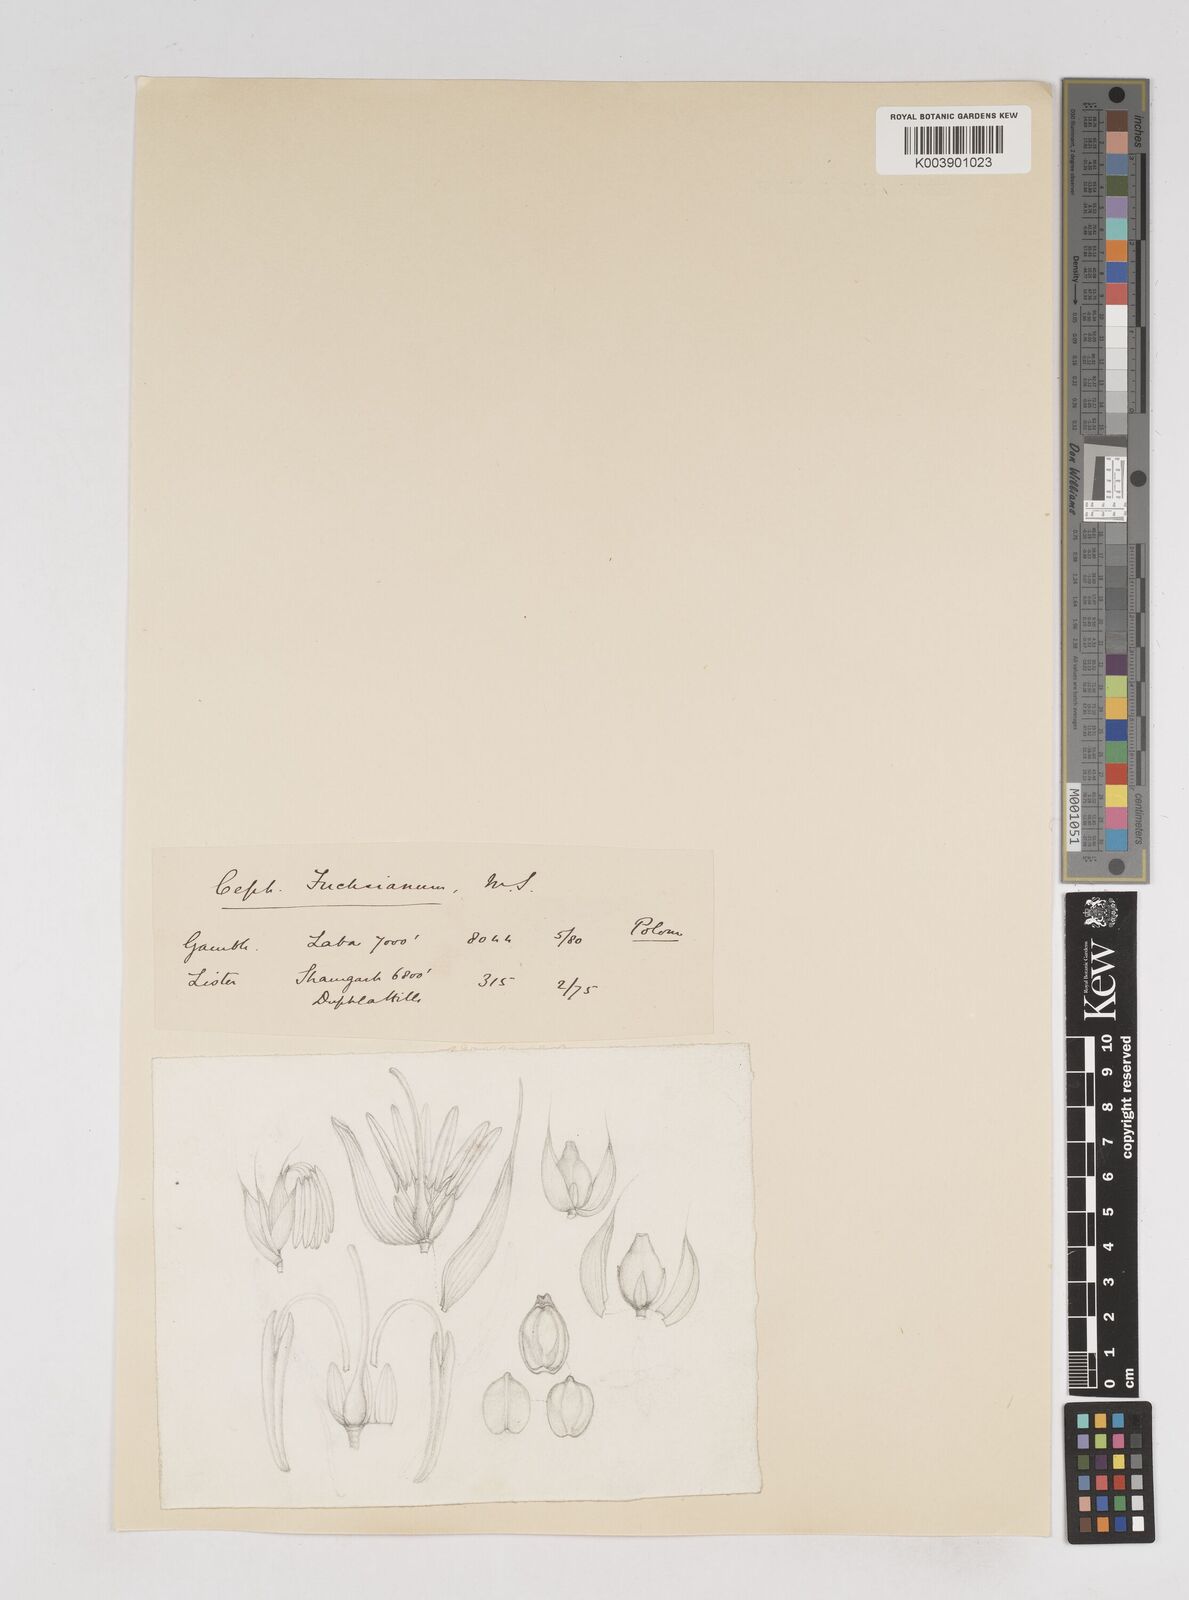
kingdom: Plantae
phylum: Tracheophyta
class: Liliopsida
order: Poales
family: Poaceae
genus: Cephalostachyum
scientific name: Cephalostachyum latifolium
